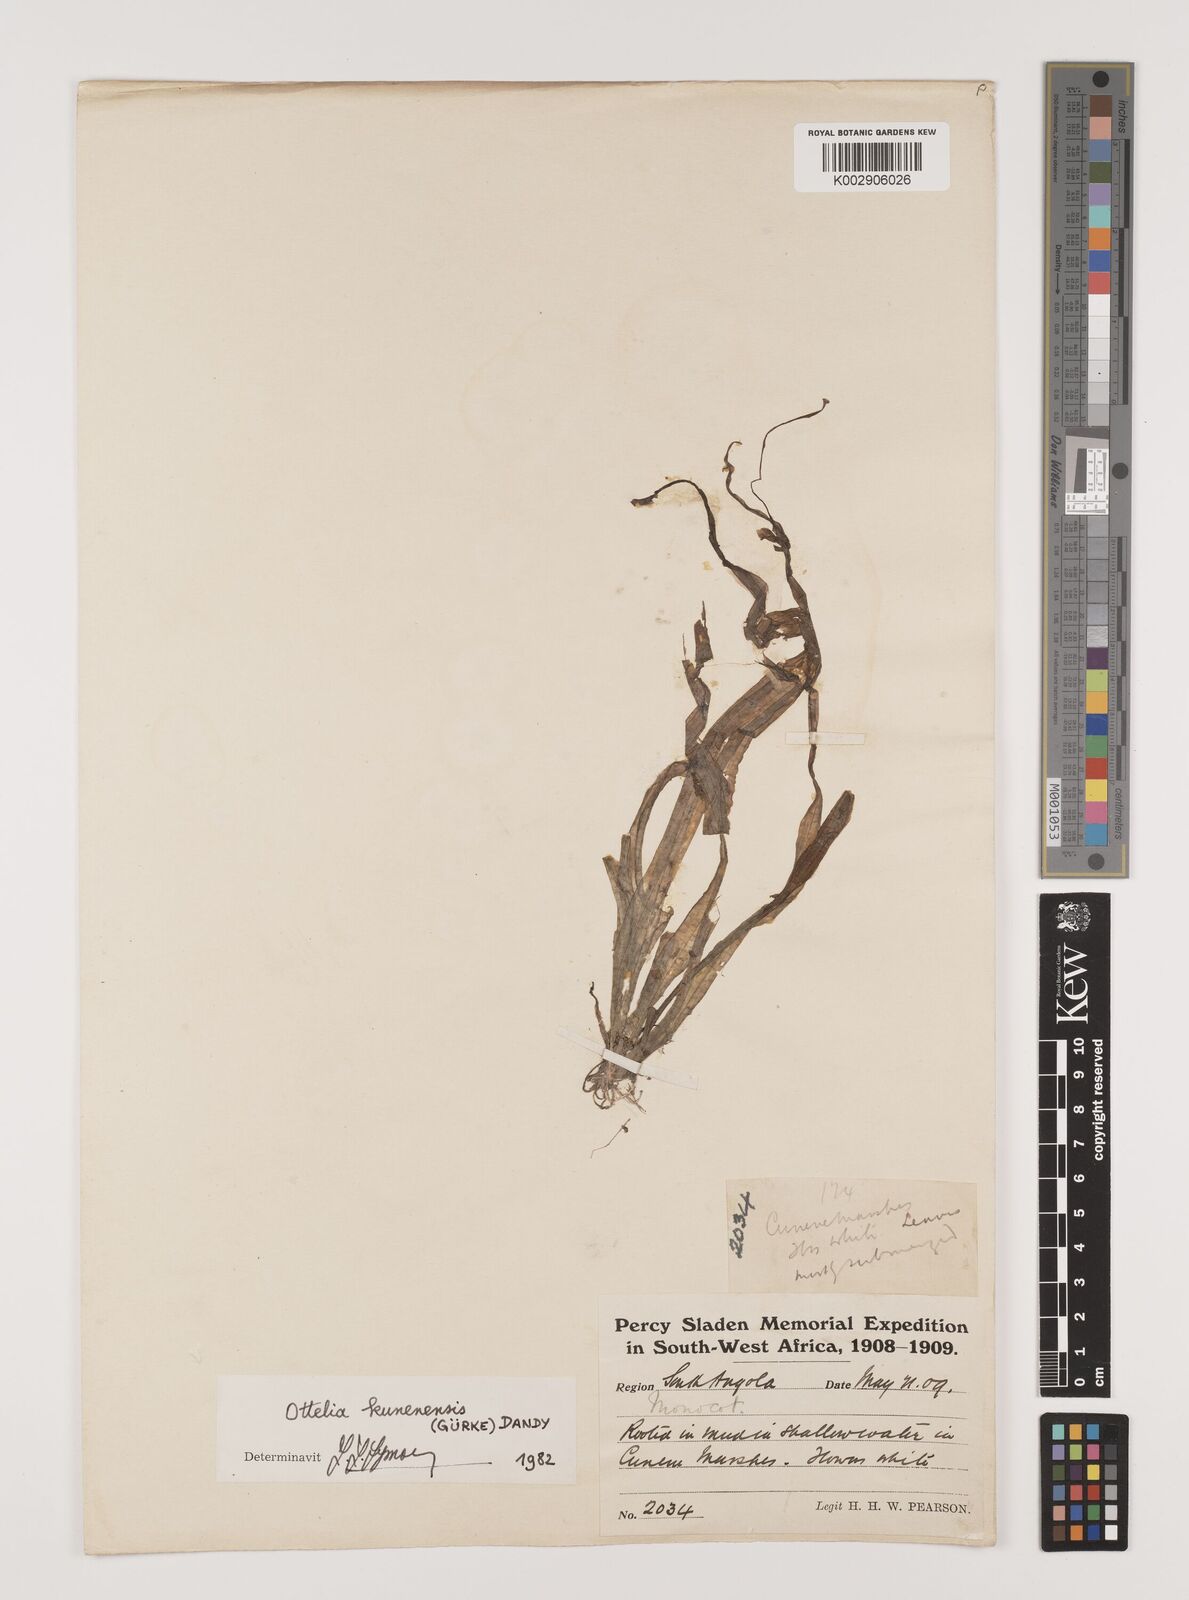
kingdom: Plantae
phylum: Tracheophyta
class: Liliopsida
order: Alismatales
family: Hydrocharitaceae
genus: Ottelia
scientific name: Ottelia kunenensis
